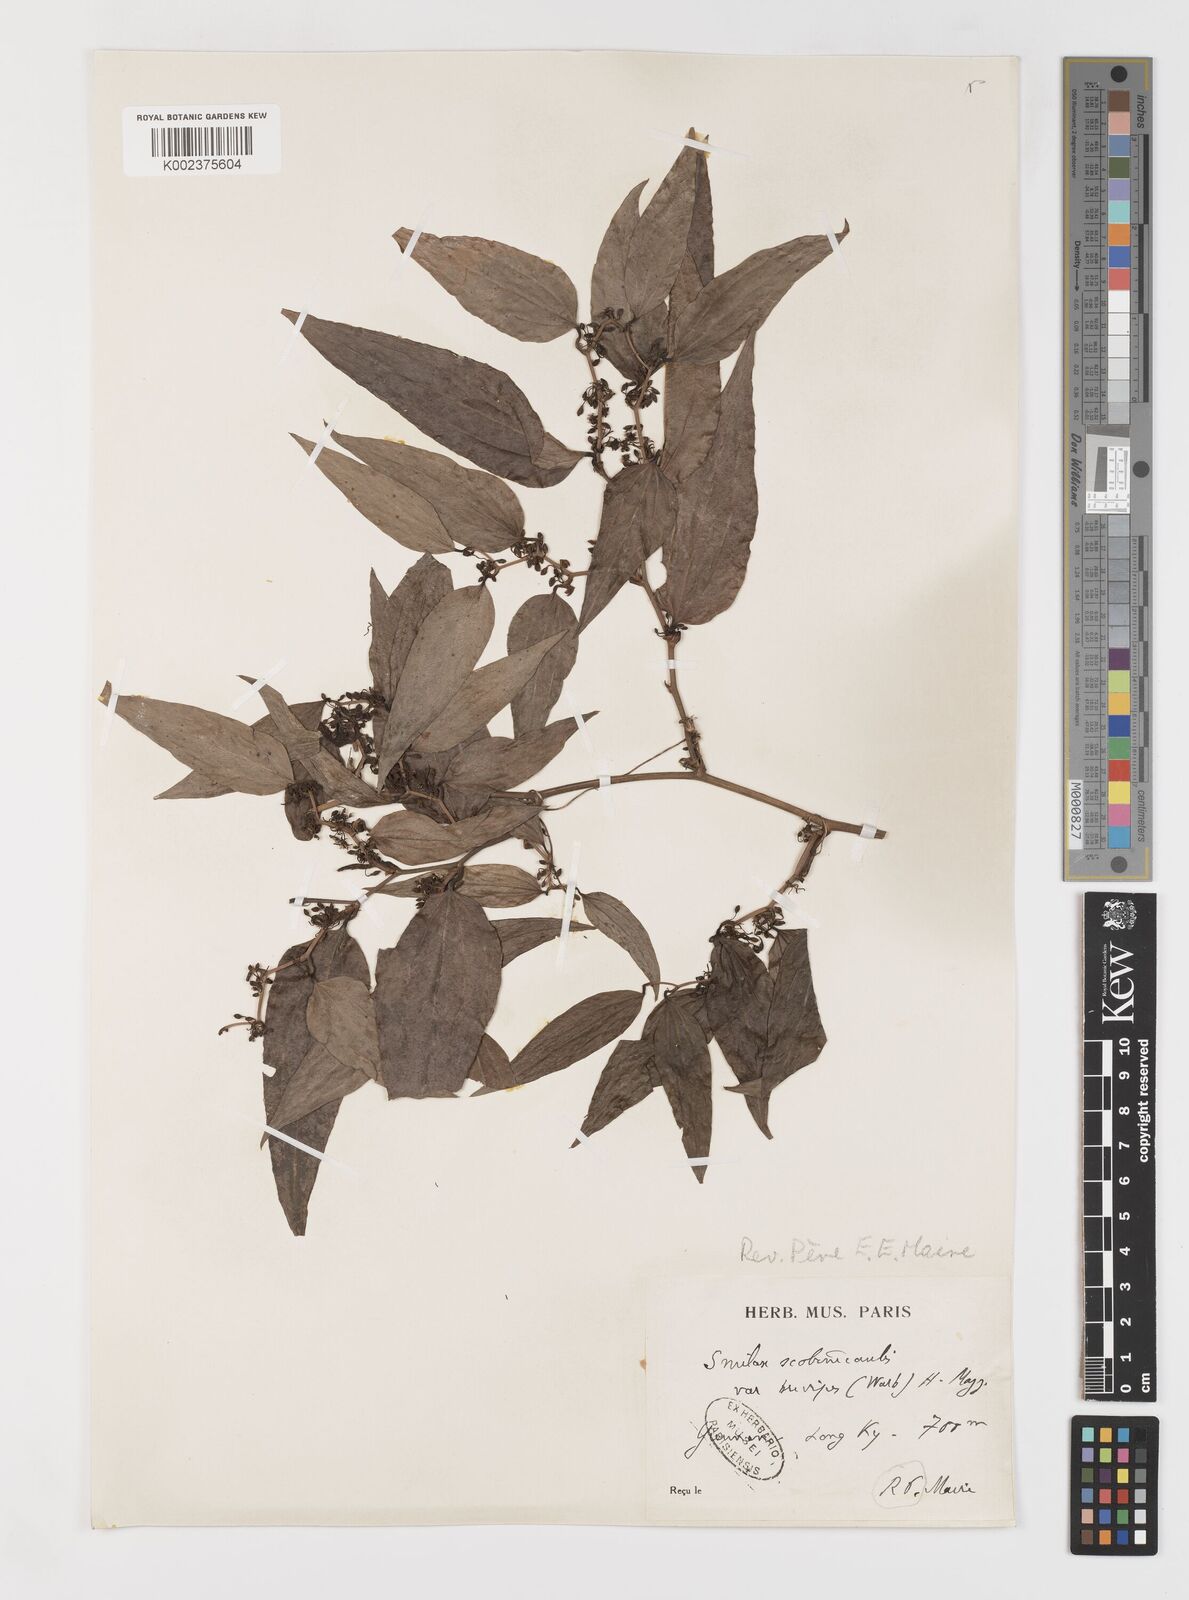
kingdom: Plantae
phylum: Tracheophyta
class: Liliopsida
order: Liliales
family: Smilacaceae
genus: Smilax
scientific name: Smilax scobinicaulis
